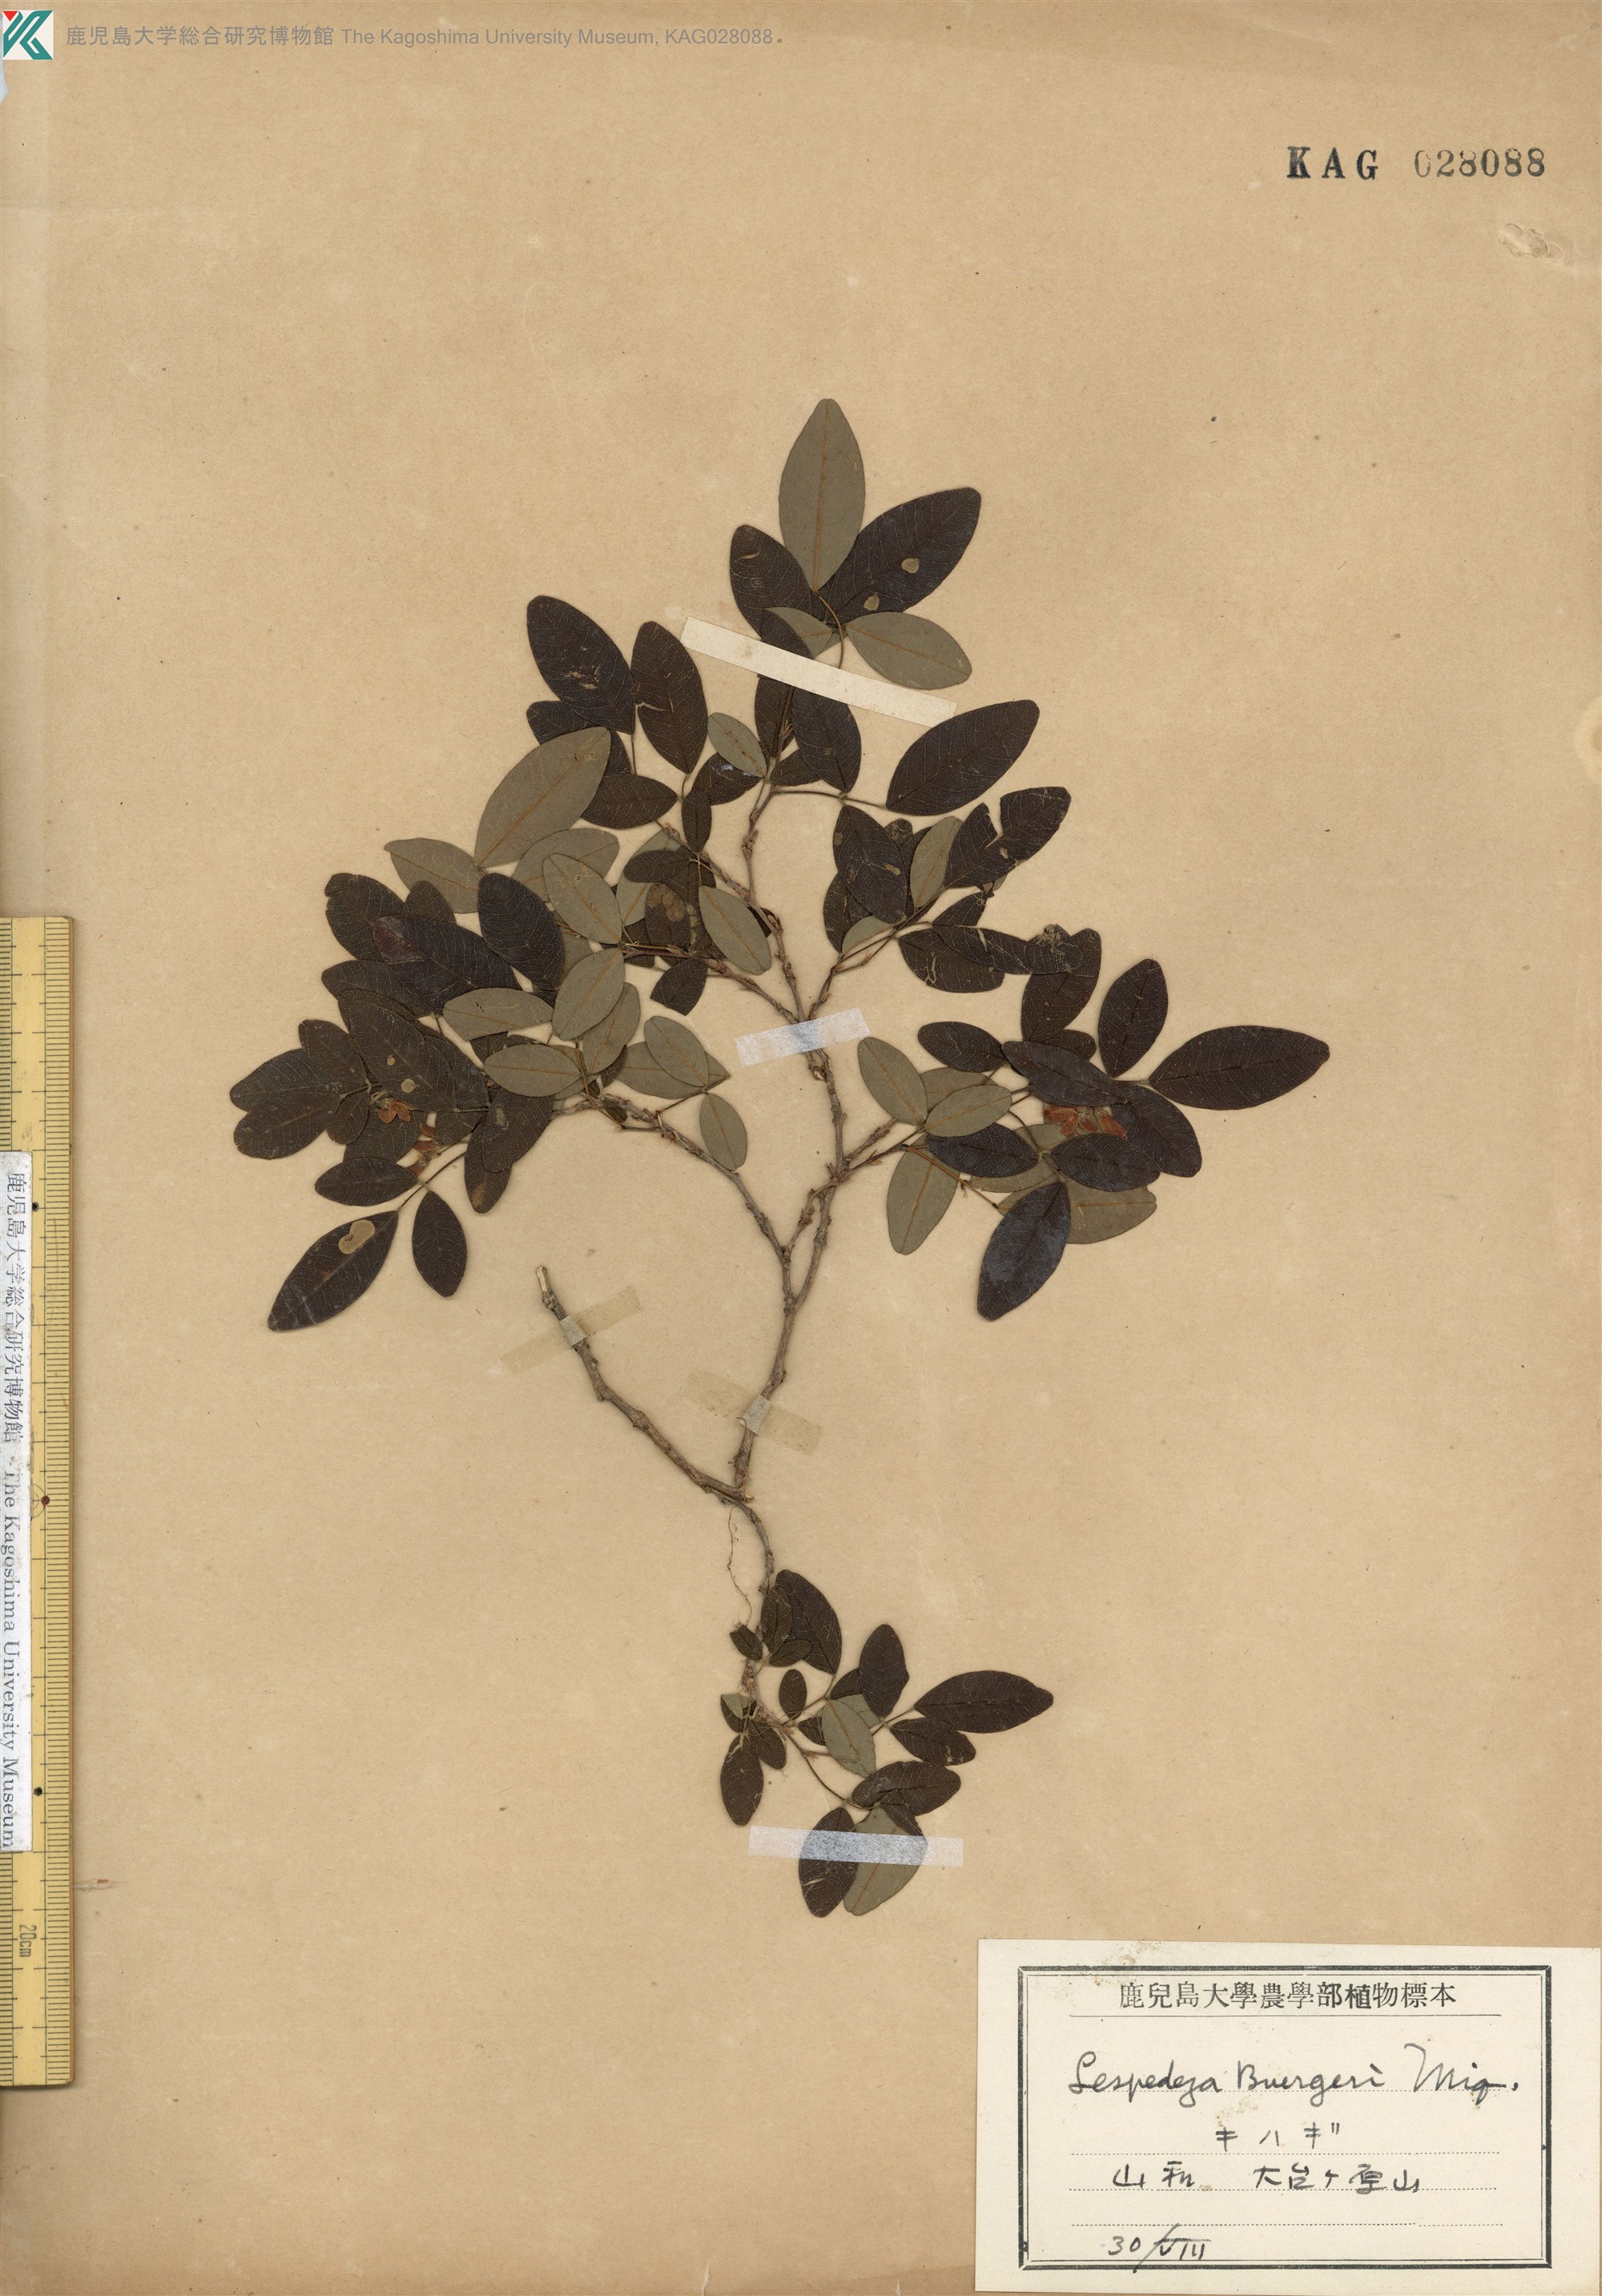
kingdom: Plantae
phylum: Tracheophyta
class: Magnoliopsida
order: Fabales
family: Fabaceae
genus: Lespedeza
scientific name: Lespedeza buergeri
